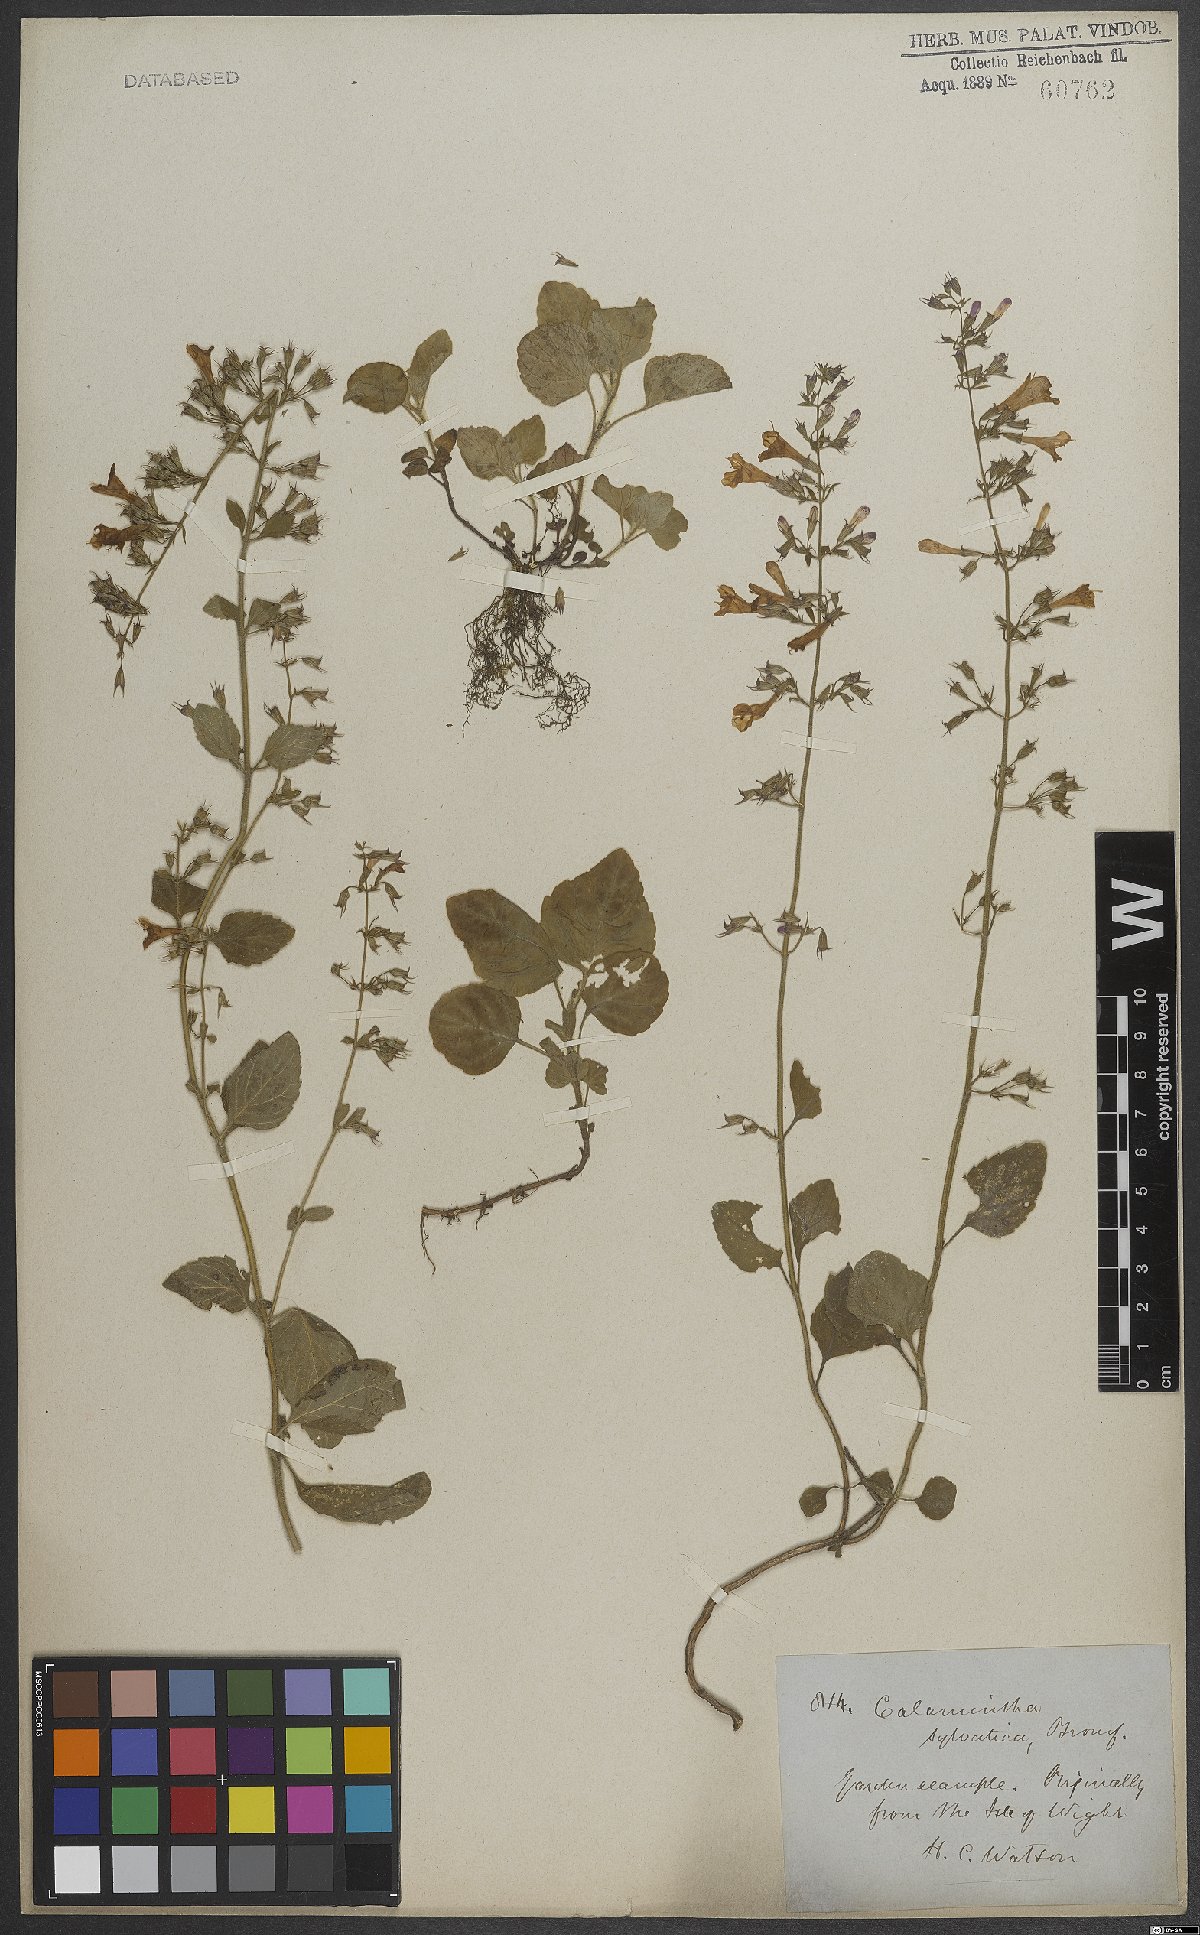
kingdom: Plantae
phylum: Tracheophyta
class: Magnoliopsida
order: Lamiales
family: Lamiaceae
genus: Clinopodium
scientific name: Clinopodium menthifolium
